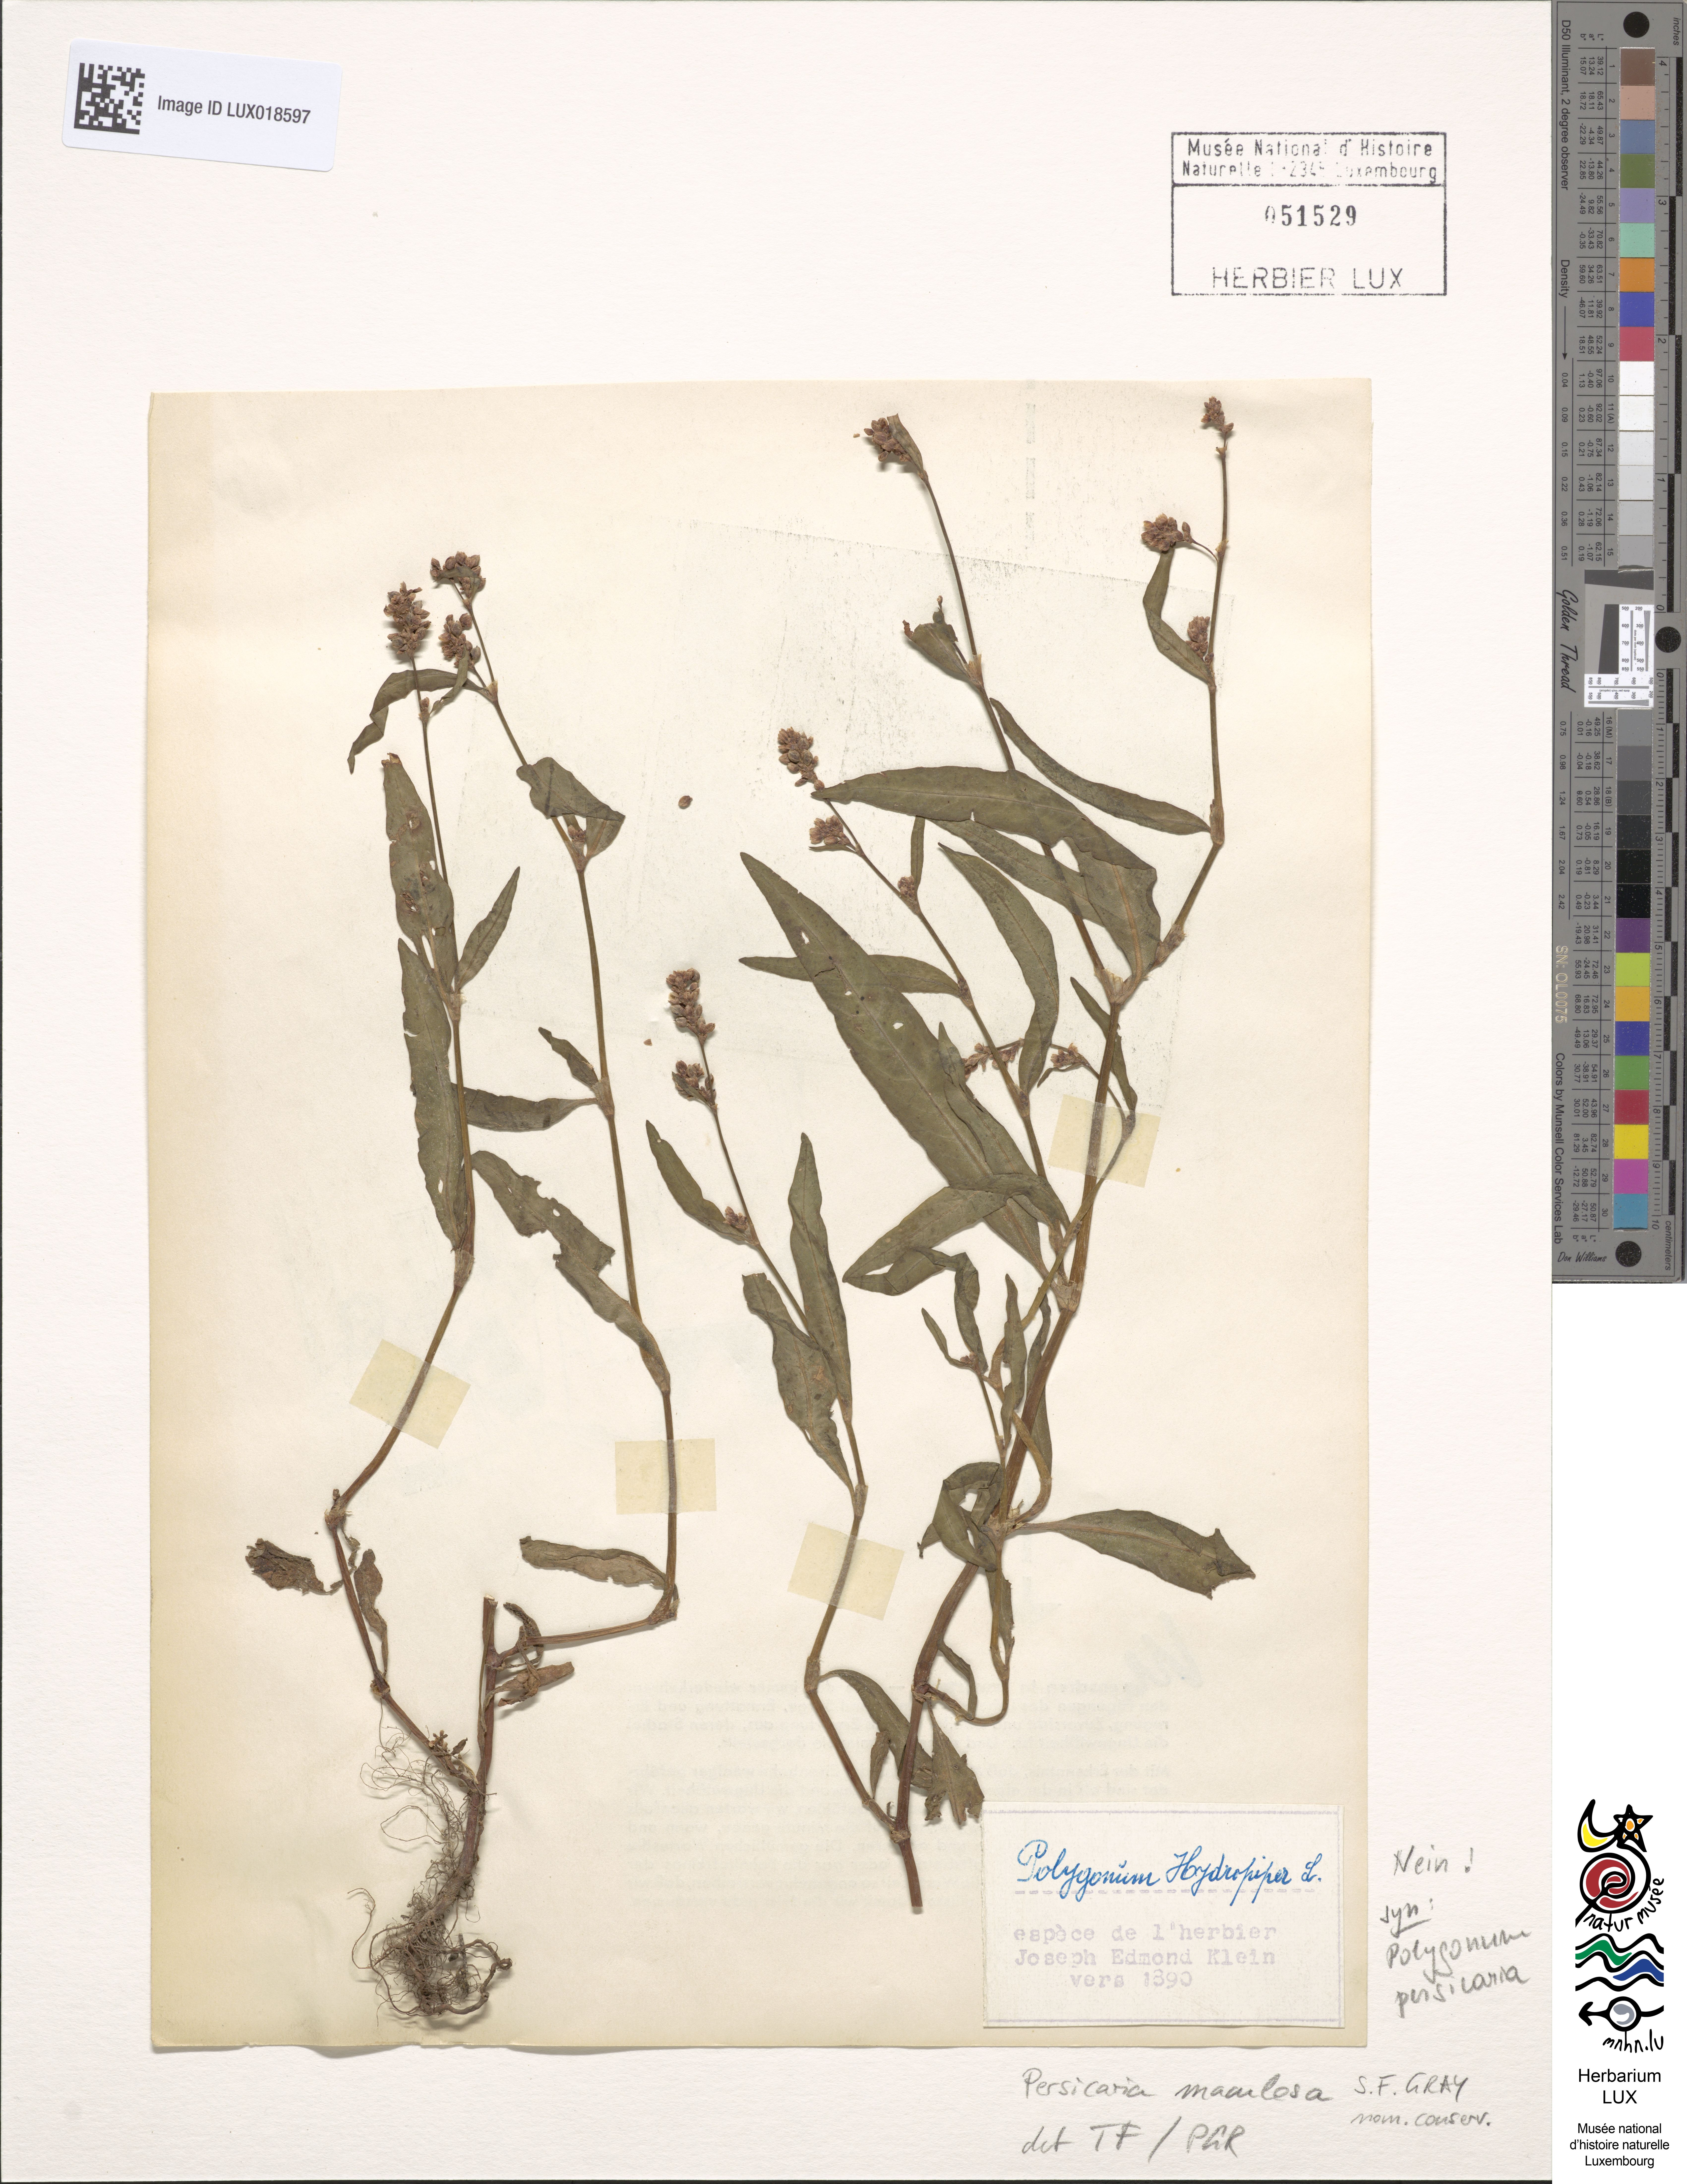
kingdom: Plantae
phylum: Tracheophyta
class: Magnoliopsida
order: Caryophyllales
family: Polygonaceae
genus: Persicaria
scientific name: Persicaria maculosa
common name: Redshank
